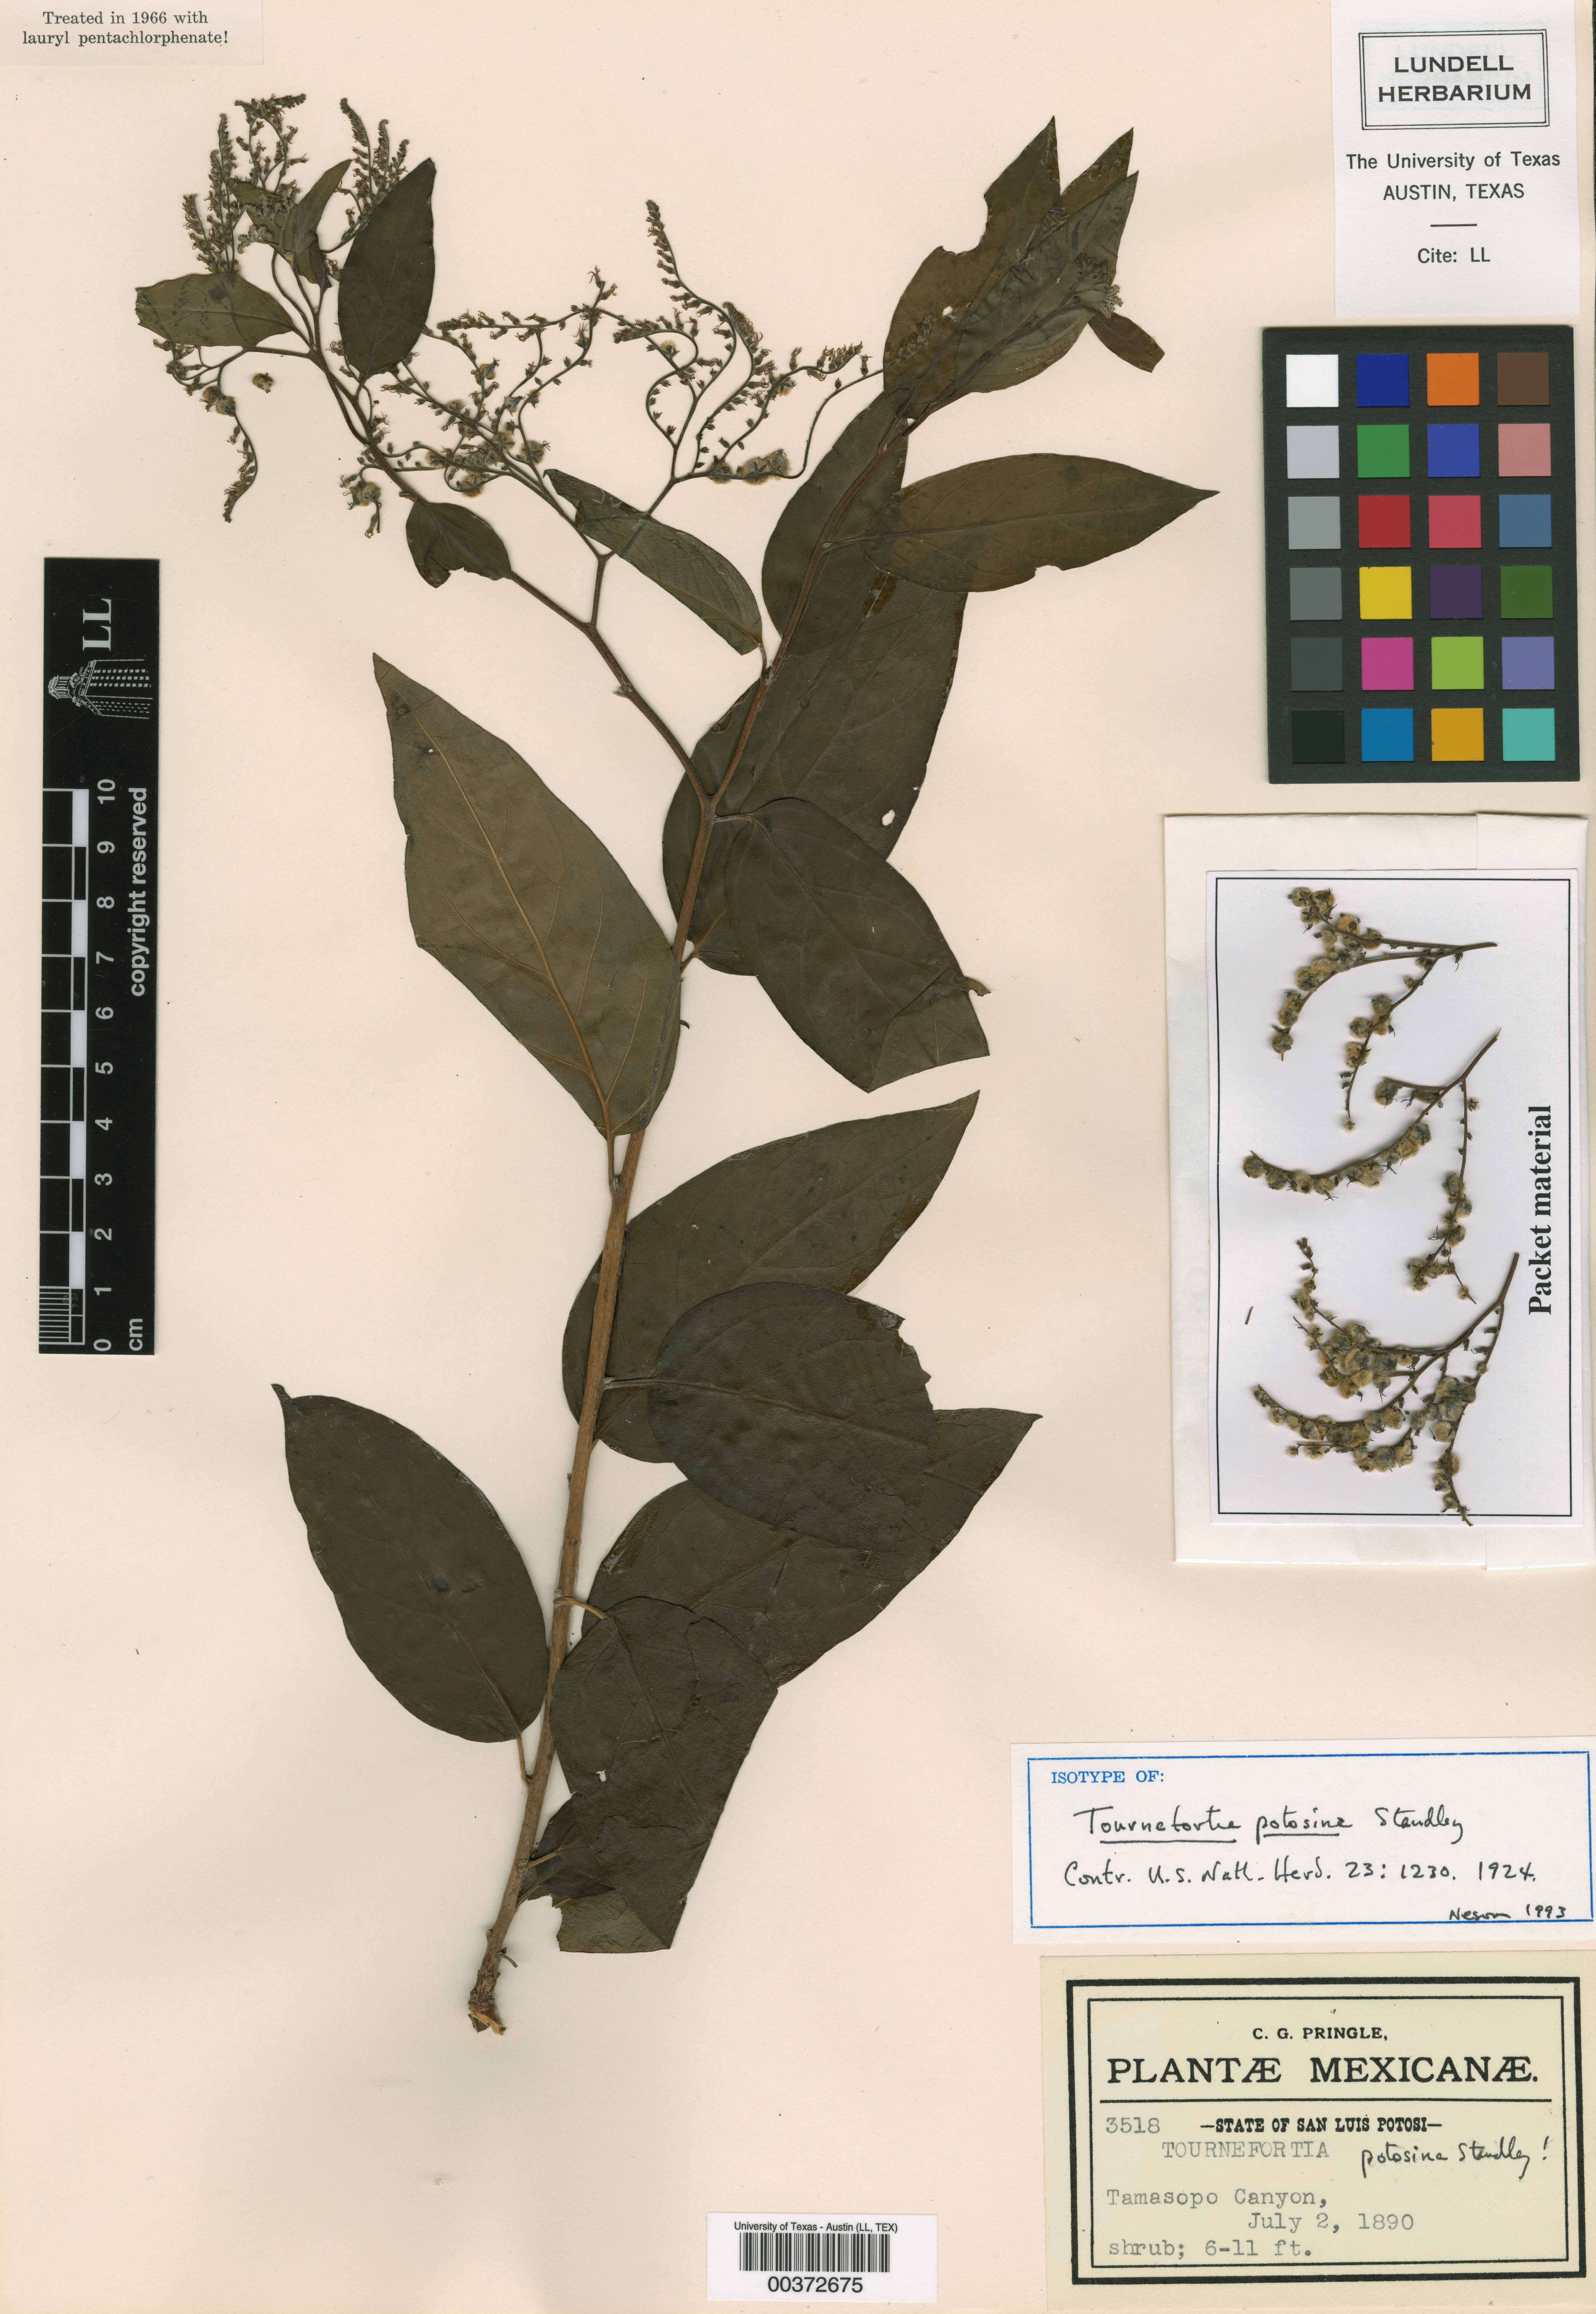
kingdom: Plantae
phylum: Tracheophyta
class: Magnoliopsida
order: Boraginales
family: Heliotropiaceae
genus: Myriopus
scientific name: Myriopus volubilis
